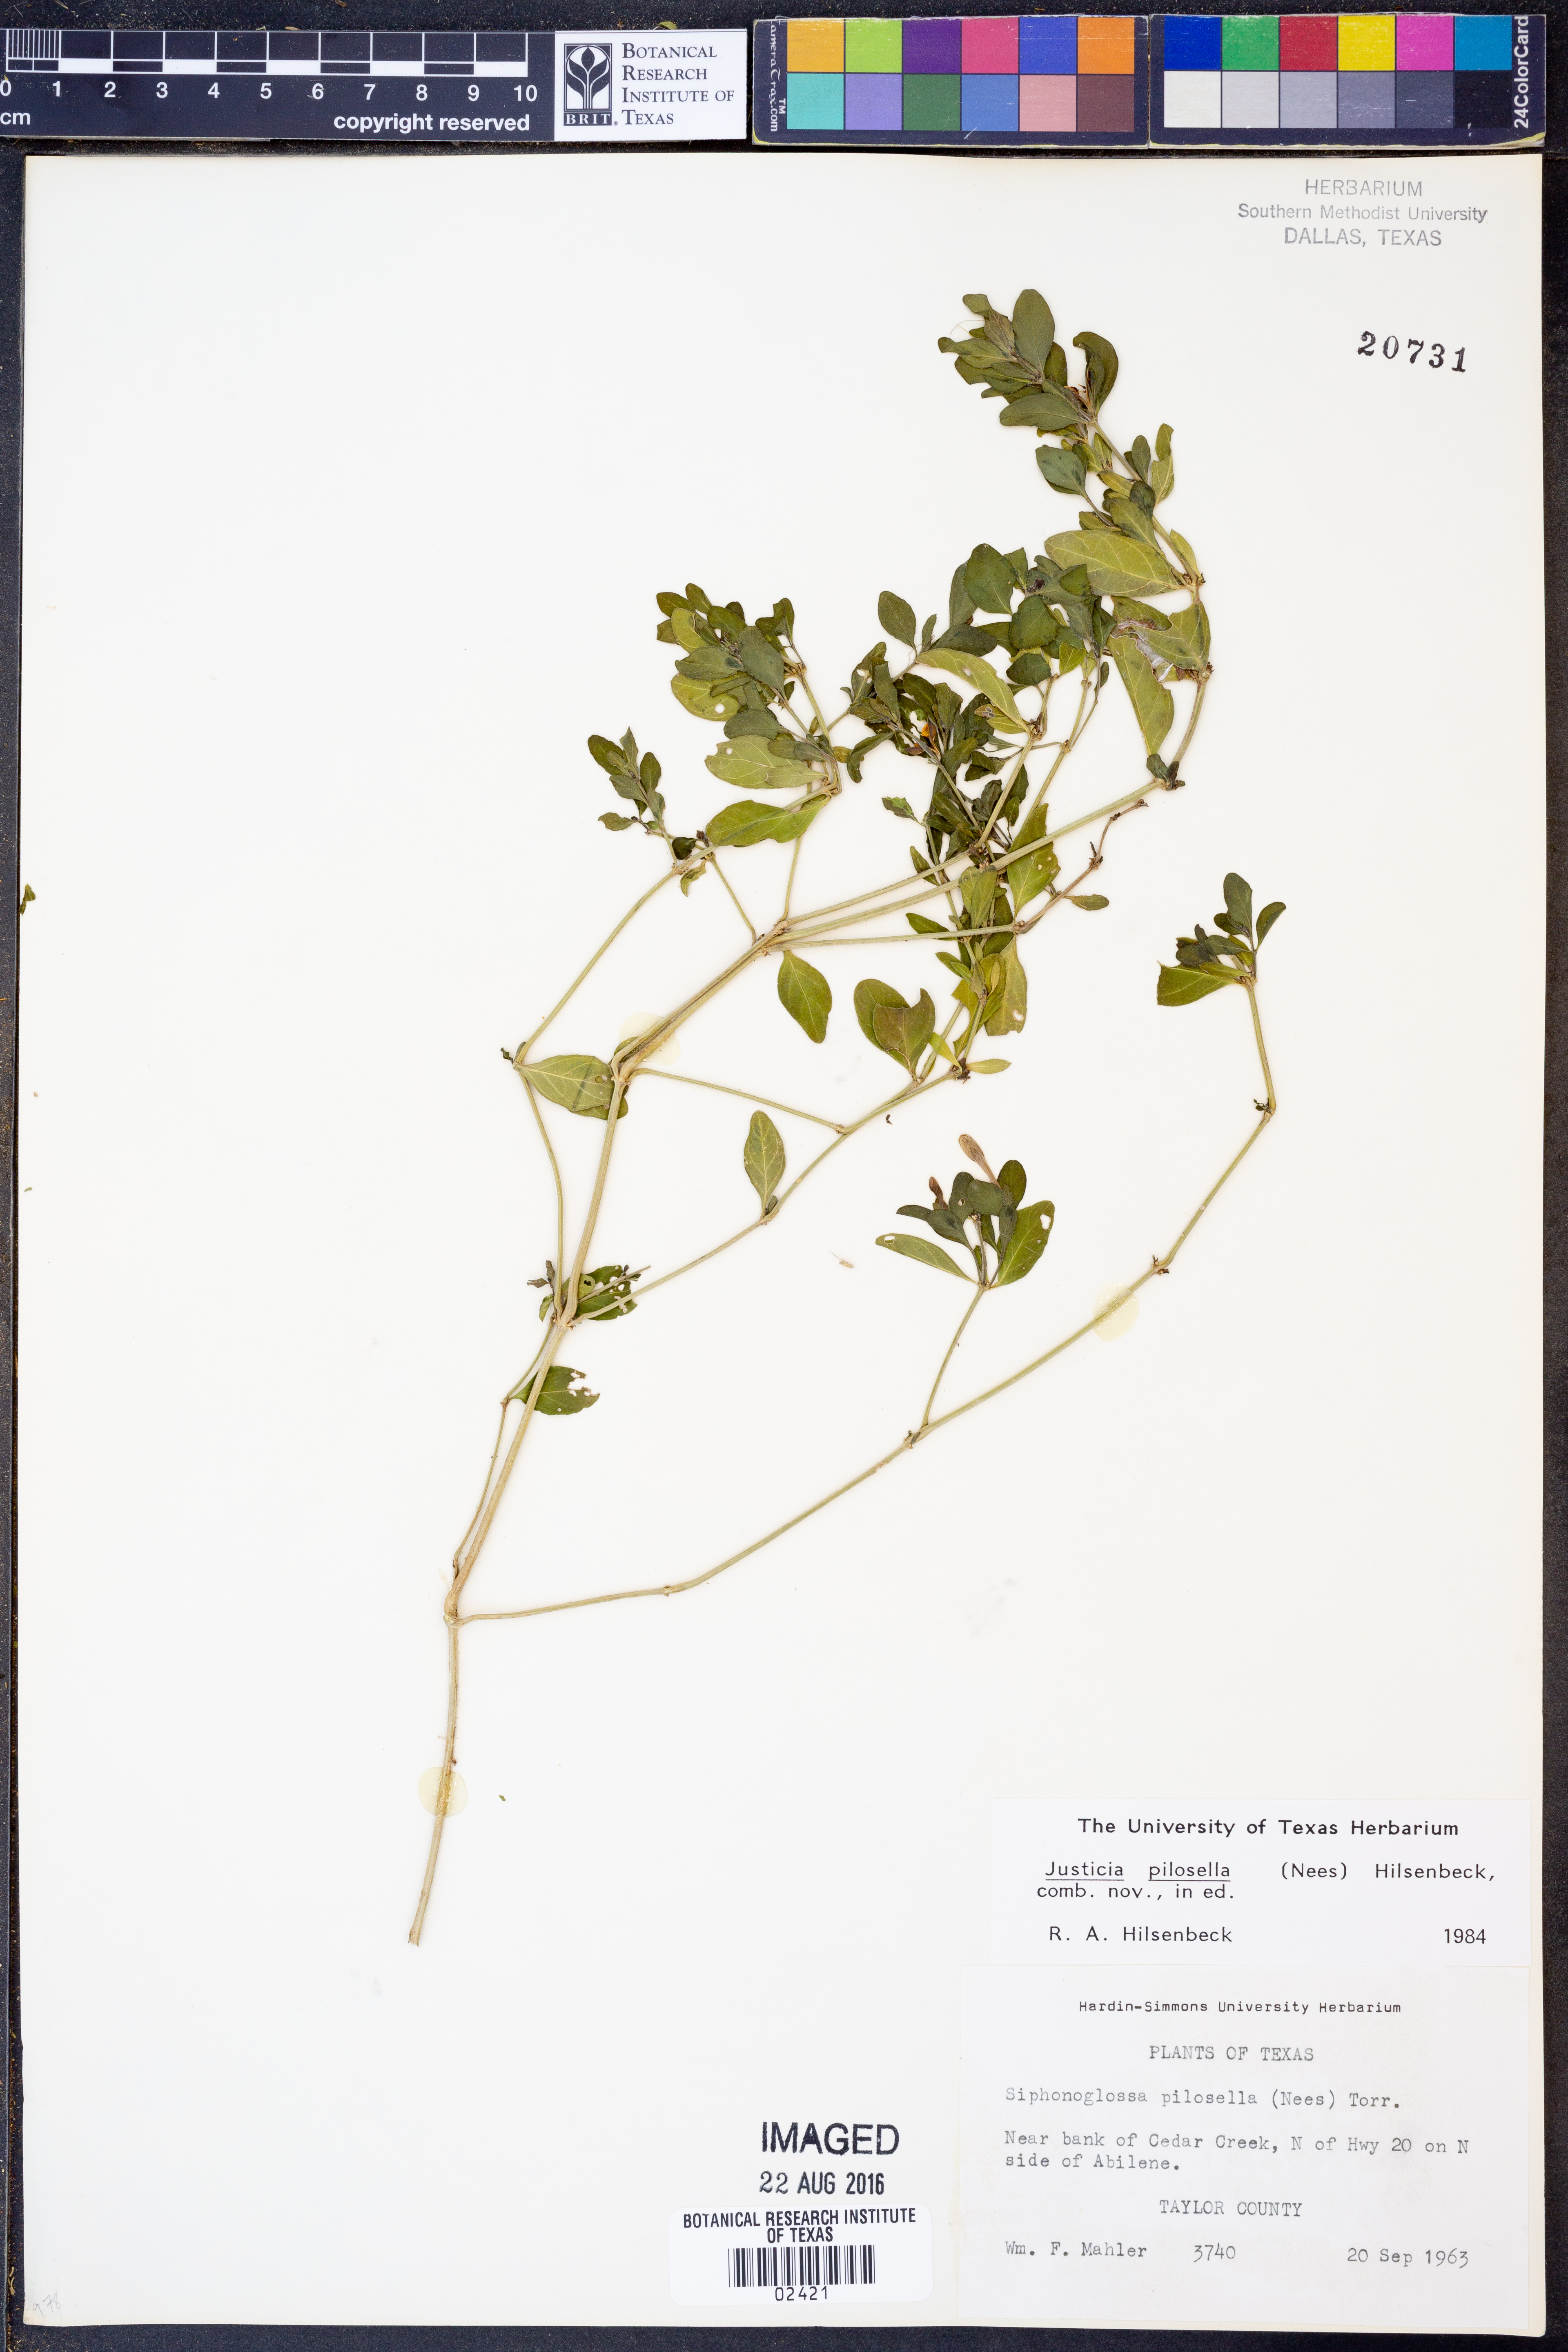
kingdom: Plantae
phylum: Tracheophyta
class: Magnoliopsida
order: Lamiales
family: Acanthaceae
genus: Justicia
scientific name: Justicia pilosella
